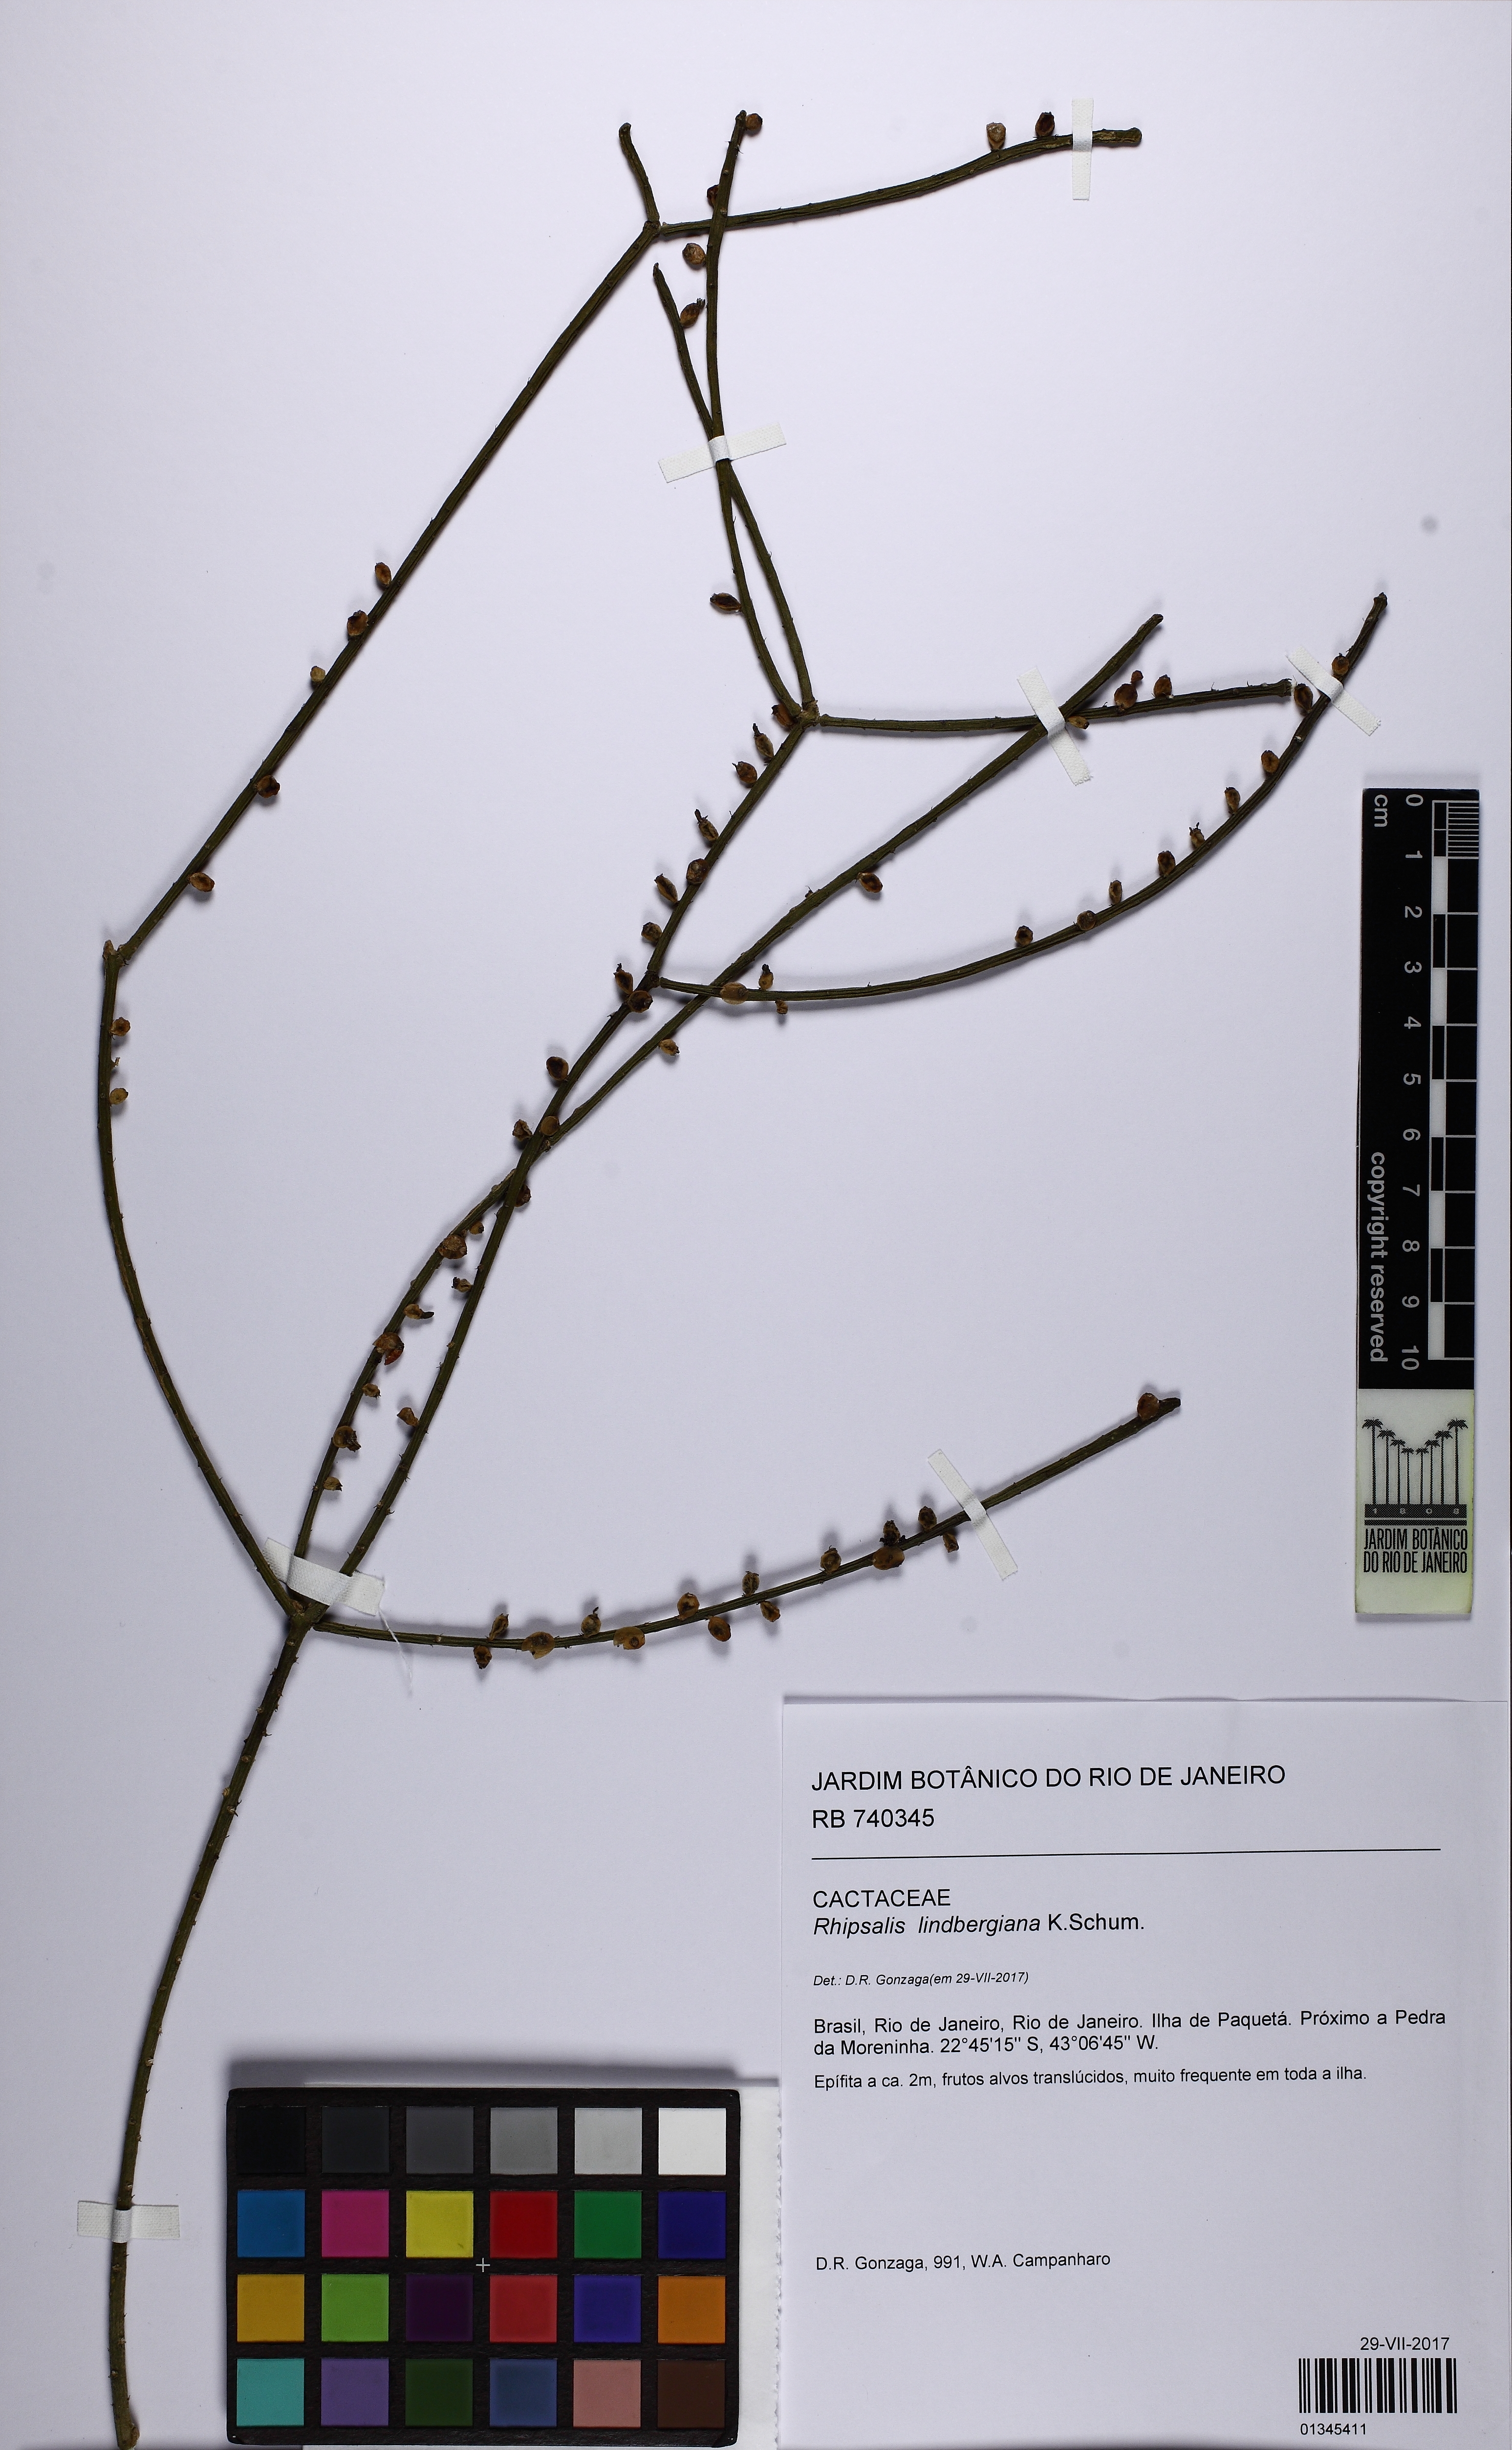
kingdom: Plantae
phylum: Tracheophyta
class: Magnoliopsida
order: Caryophyllales
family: Cactaceae
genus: Rhipsalis
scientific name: Rhipsalis lindbergiana
